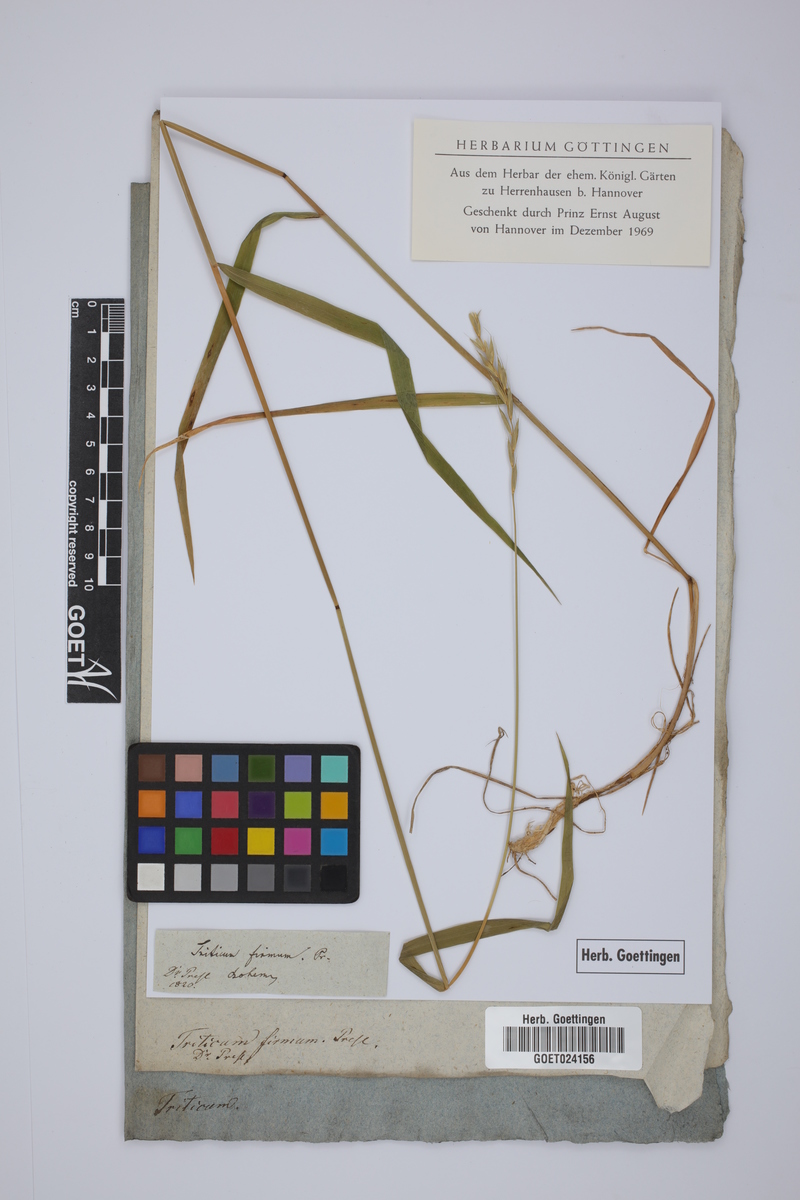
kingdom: Plantae
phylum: Tracheophyta
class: Liliopsida
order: Poales
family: Poaceae
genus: Elymus
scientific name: Elymus repens
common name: Quackgrass
